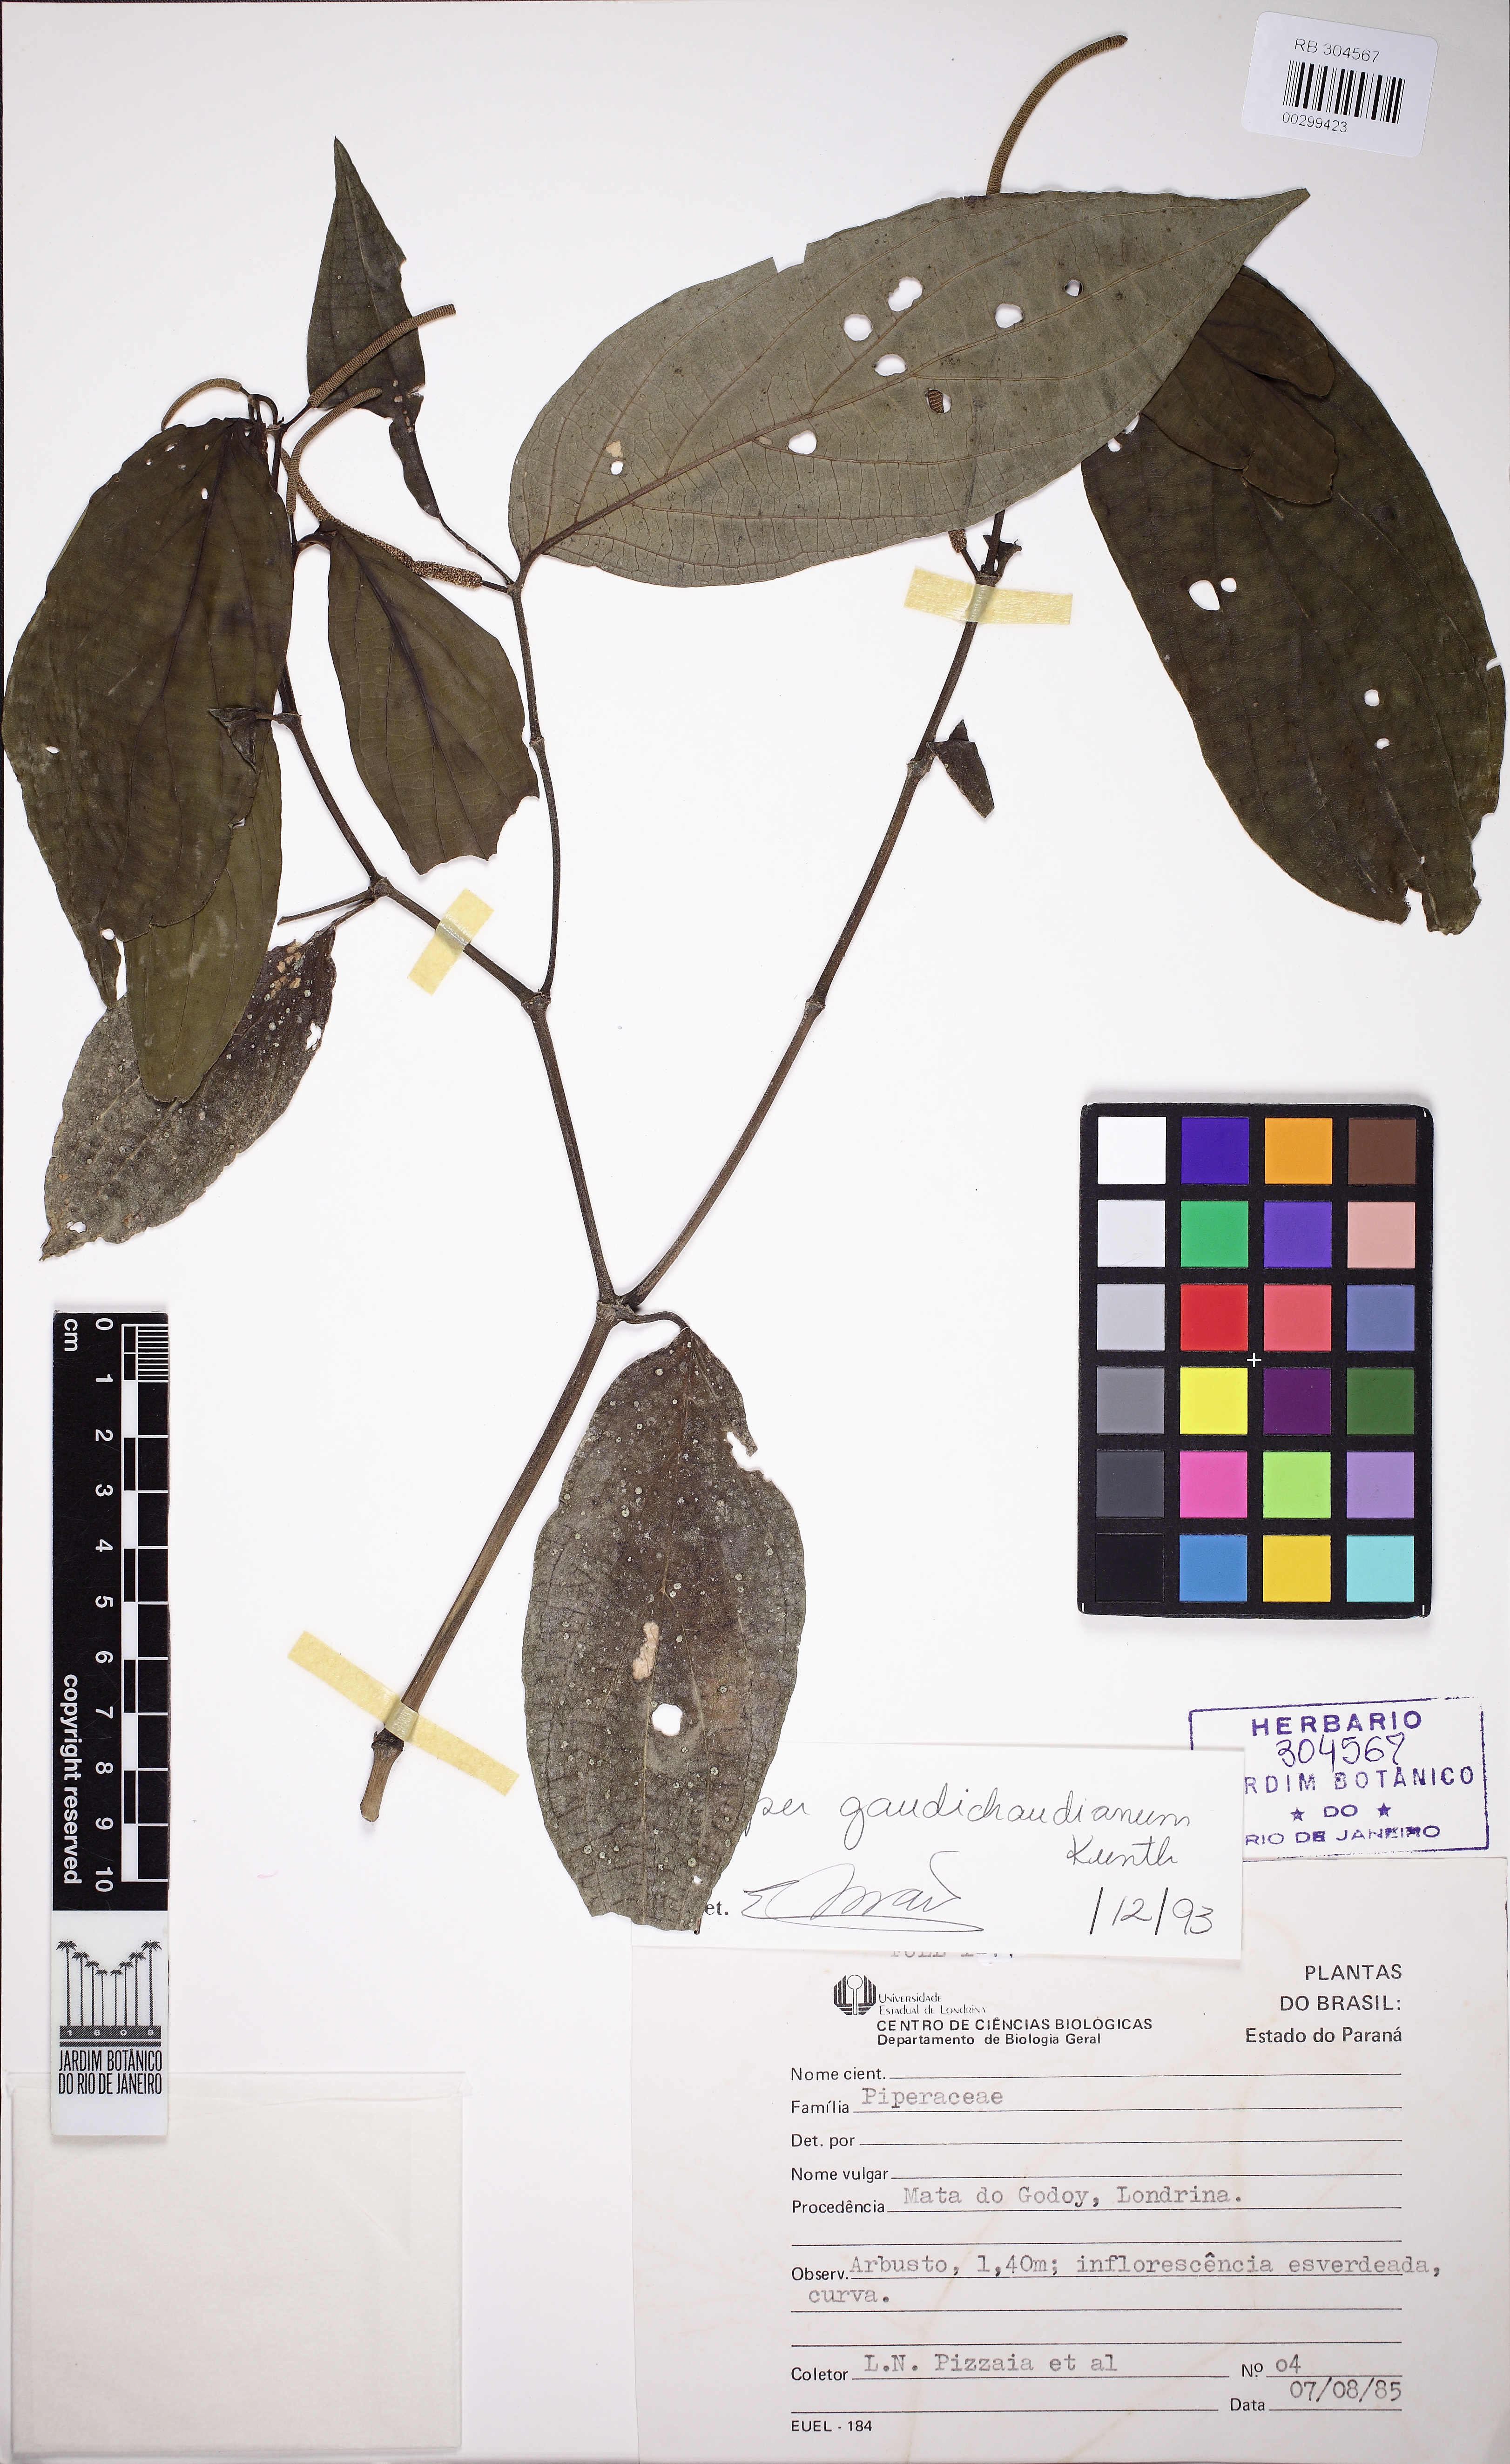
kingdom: Plantae
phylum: Tracheophyta
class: Magnoliopsida
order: Piperales
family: Piperaceae
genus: Piper
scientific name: Piper gaudichaudianum
